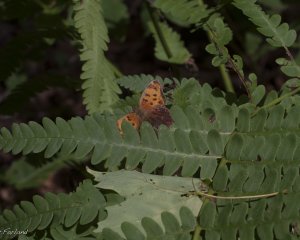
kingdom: Animalia
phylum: Arthropoda
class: Insecta
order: Lepidoptera
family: Nymphalidae
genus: Polygonia
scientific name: Polygonia comma
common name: Eastern Comma
